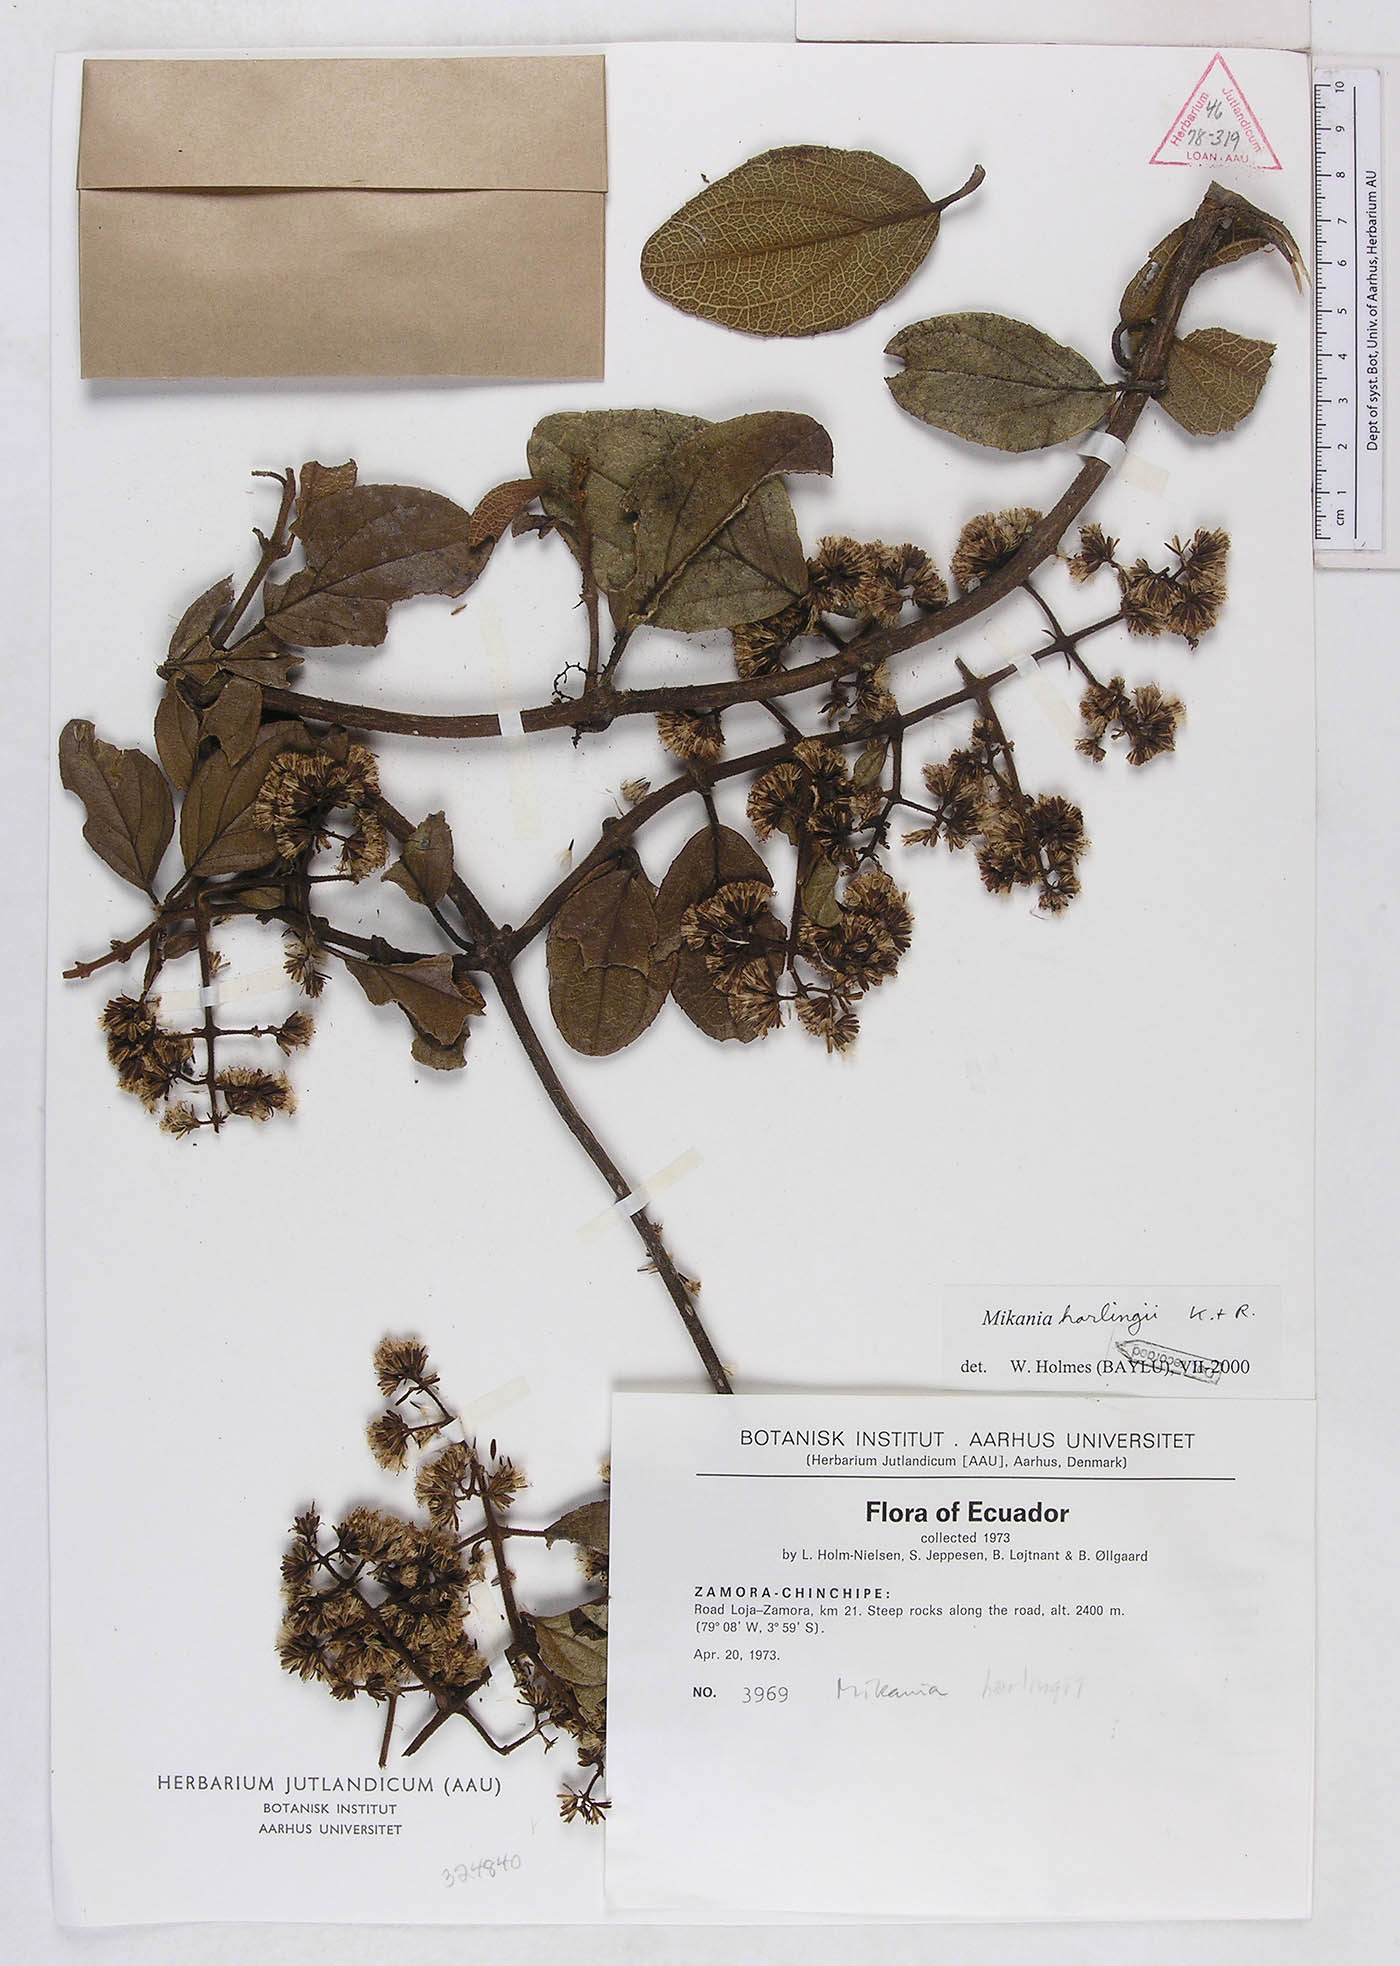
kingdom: Plantae
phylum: Tracheophyta
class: Magnoliopsida
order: Asterales
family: Asteraceae
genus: Mikania
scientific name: Mikania harlingii
